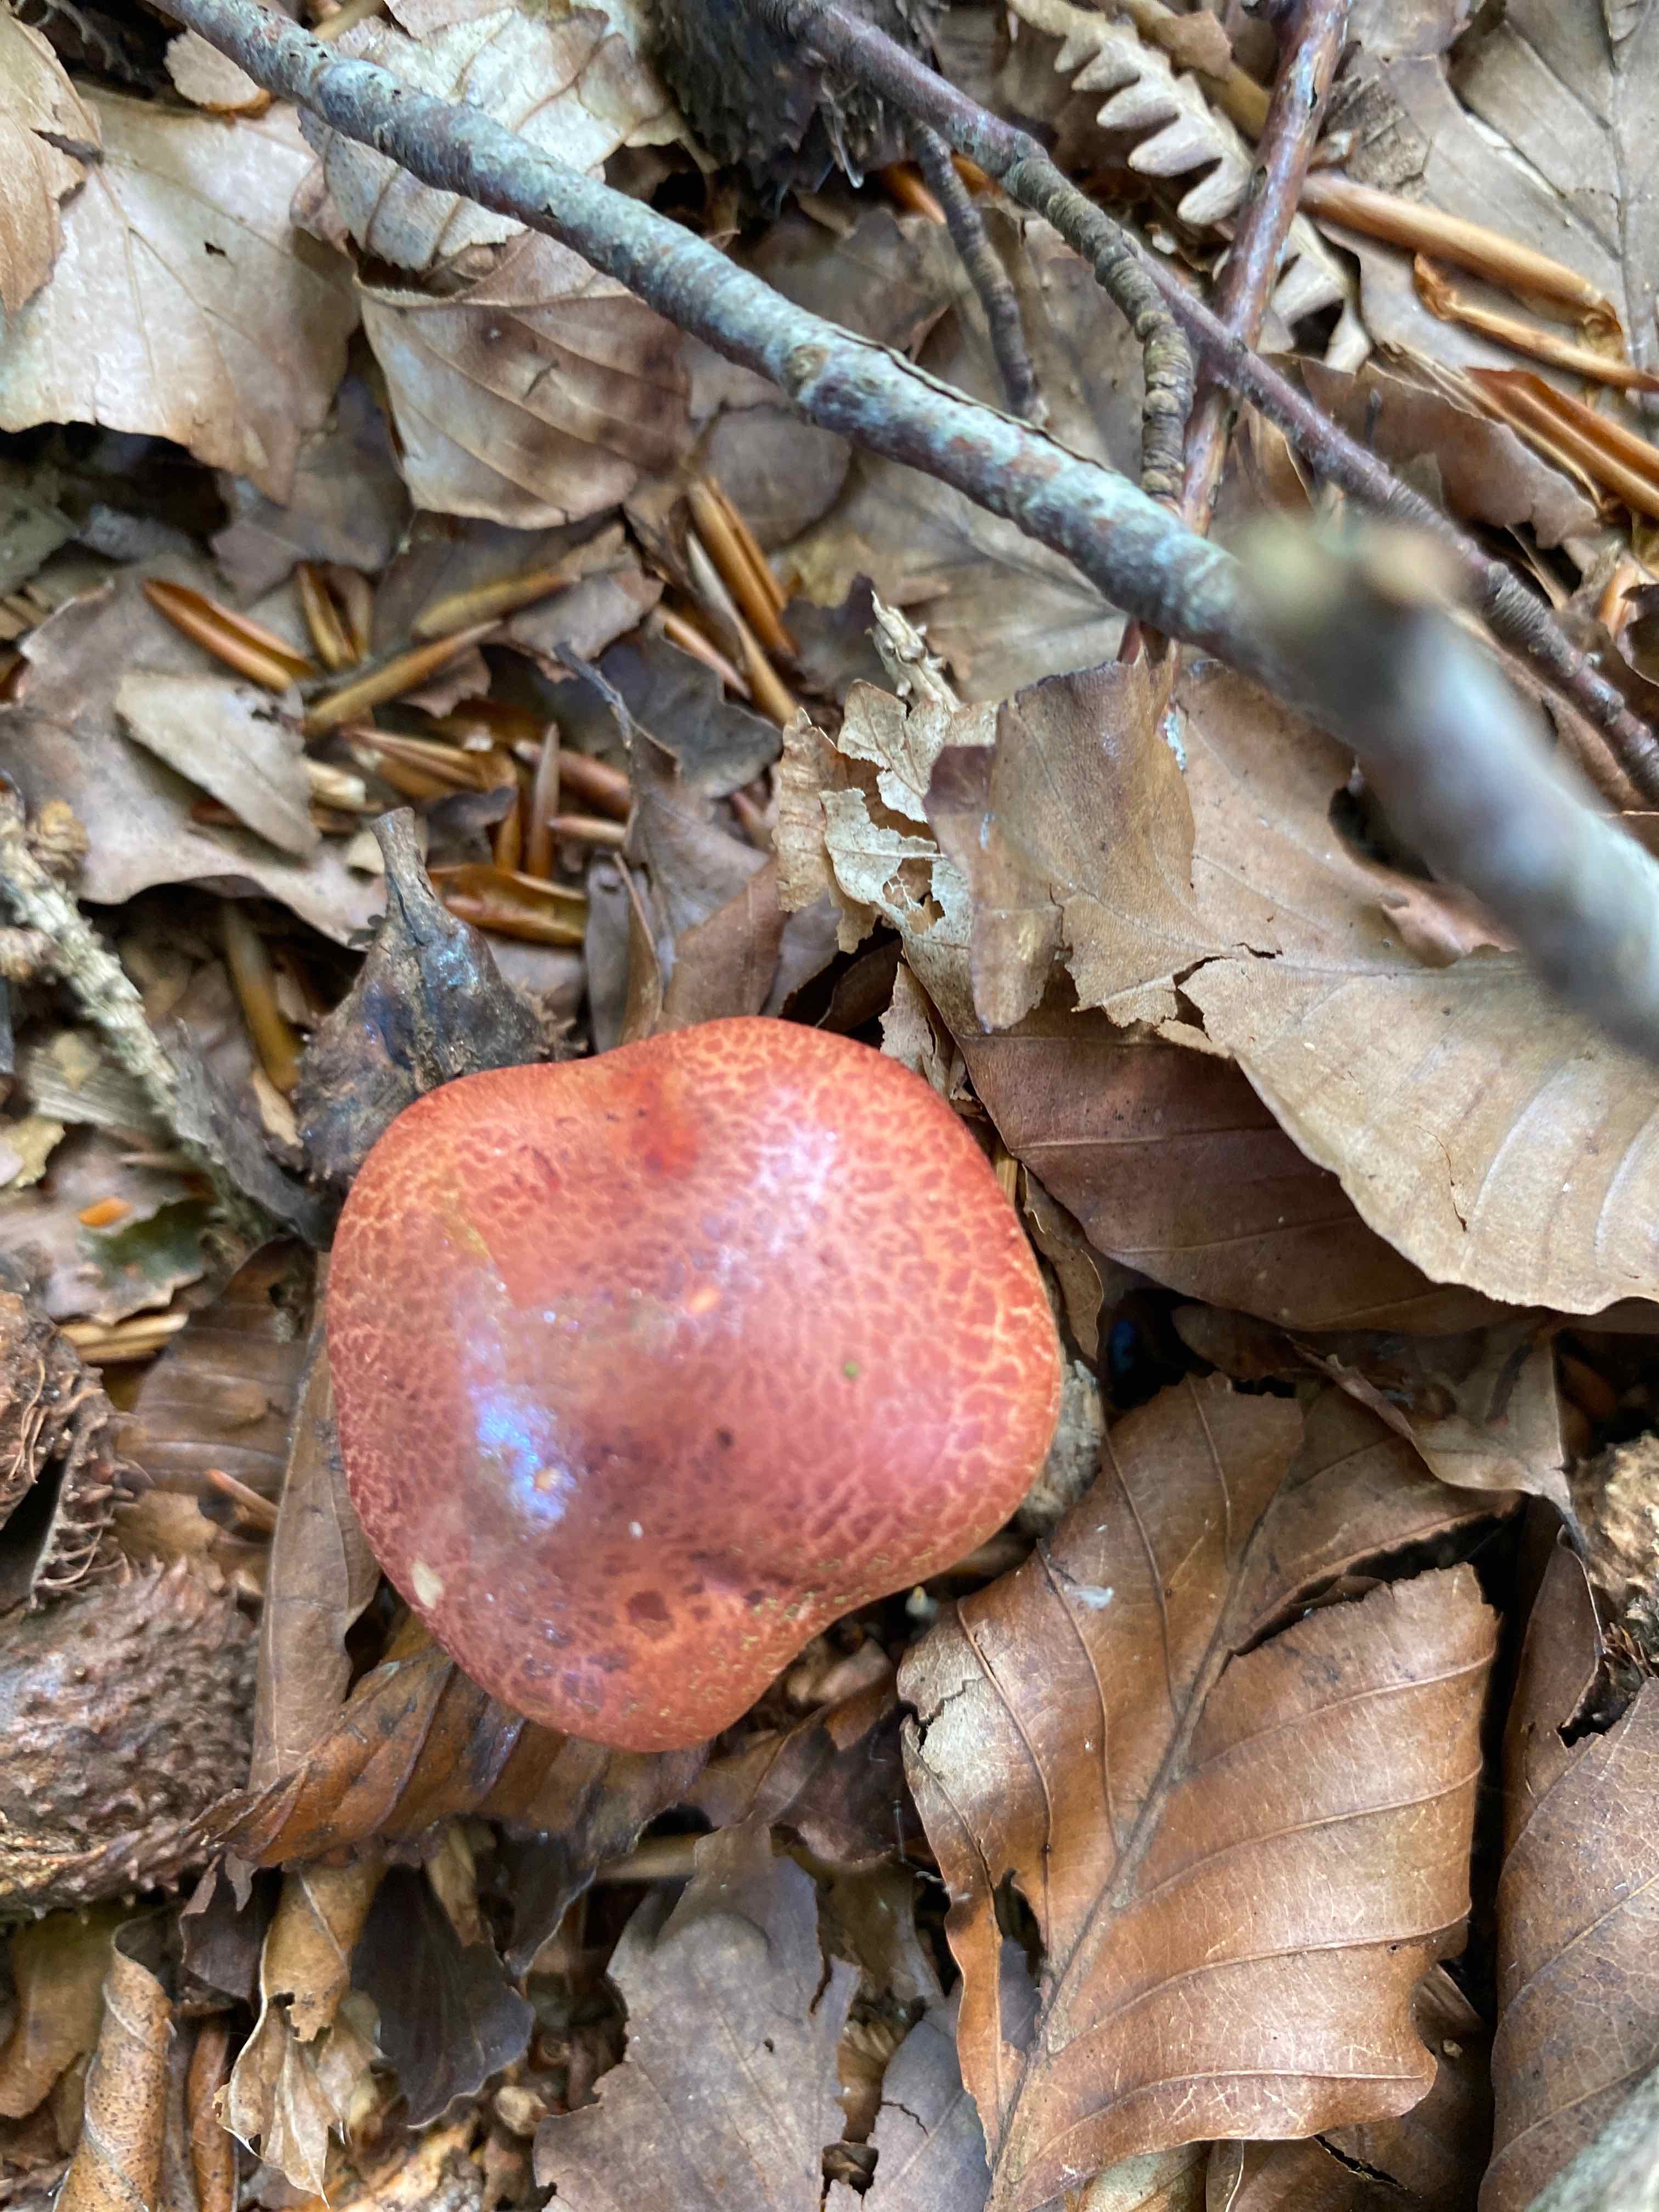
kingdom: Fungi
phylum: Basidiomycota
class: Agaricomycetes
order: Agaricales
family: Cortinariaceae
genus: Cortinarius
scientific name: Cortinarius bolaris
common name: cinnoberskællet slørhat
